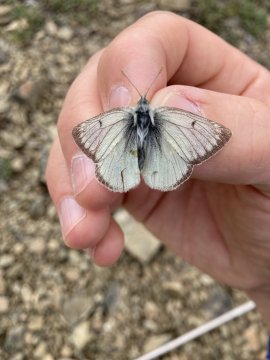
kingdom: Animalia
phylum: Arthropoda
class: Insecta
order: Lepidoptera
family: Pieridae
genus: Colias
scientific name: Colias
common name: Clouded Yellows
